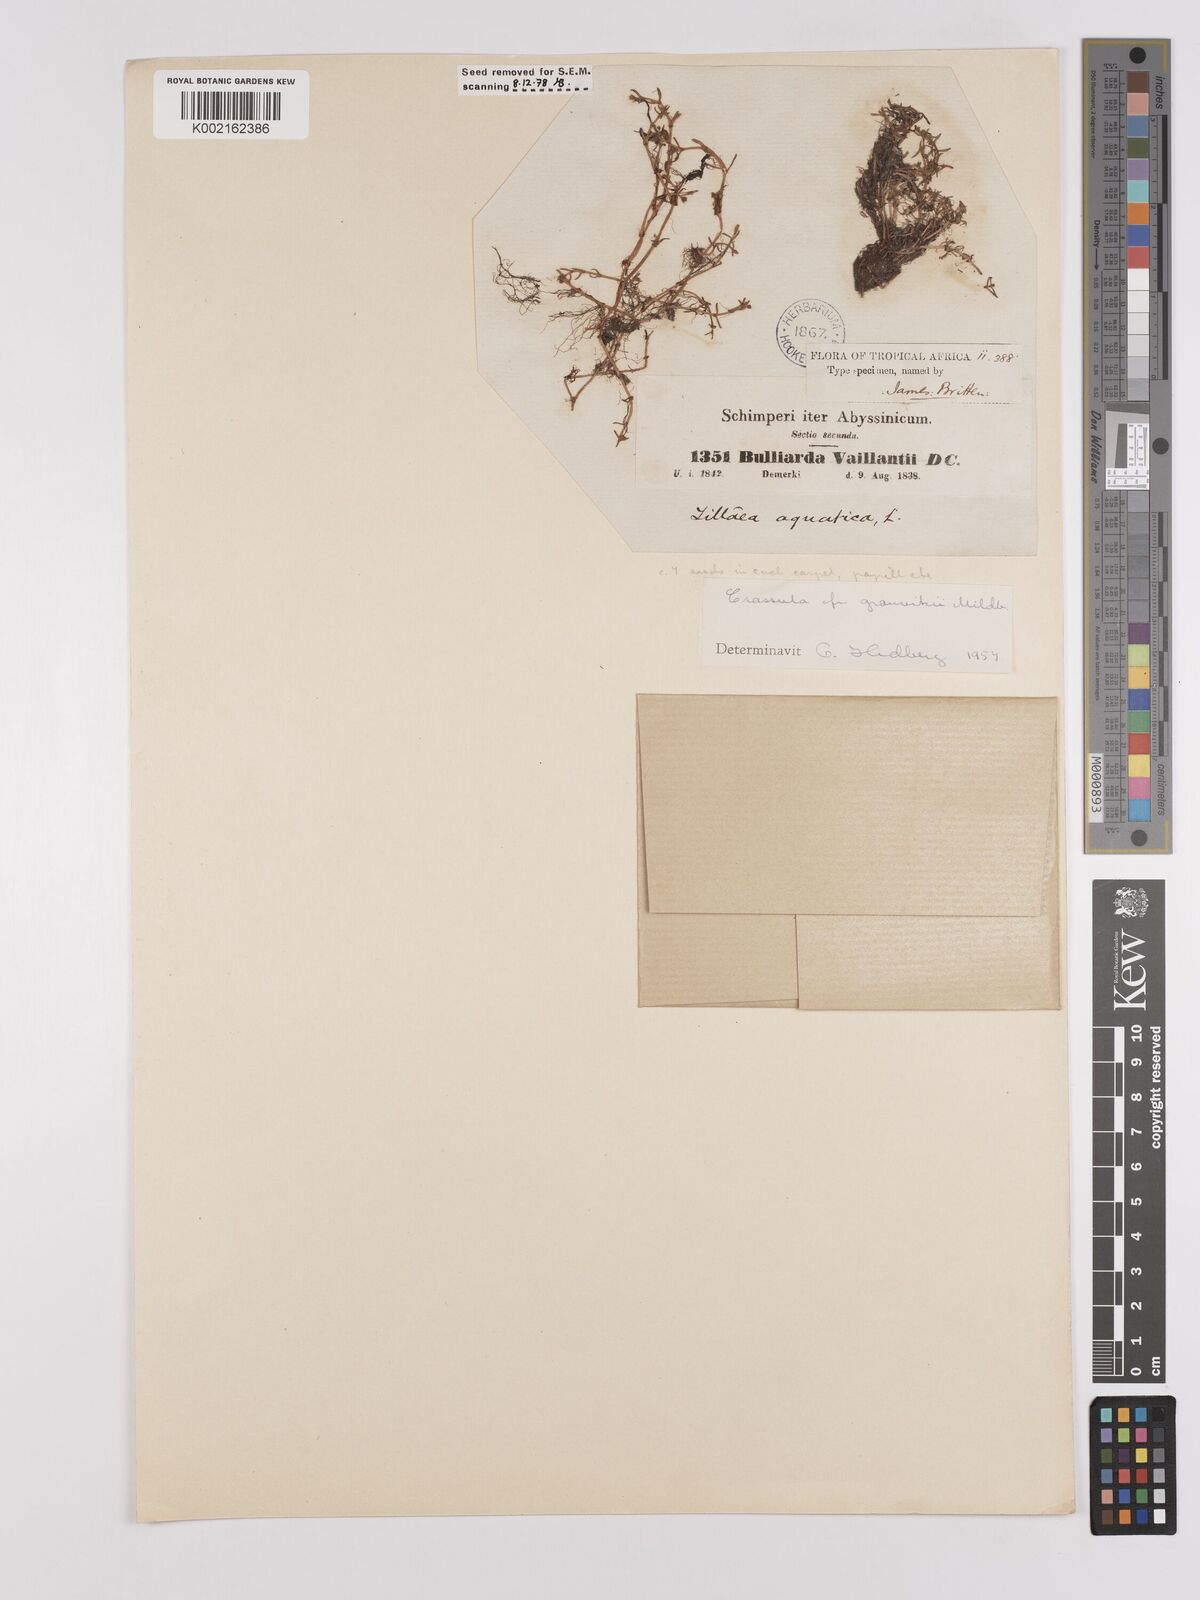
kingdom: Plantae
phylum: Tracheophyta
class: Magnoliopsida
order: Saxifragales
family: Crassulaceae
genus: Crassula
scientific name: Crassula granvikii
